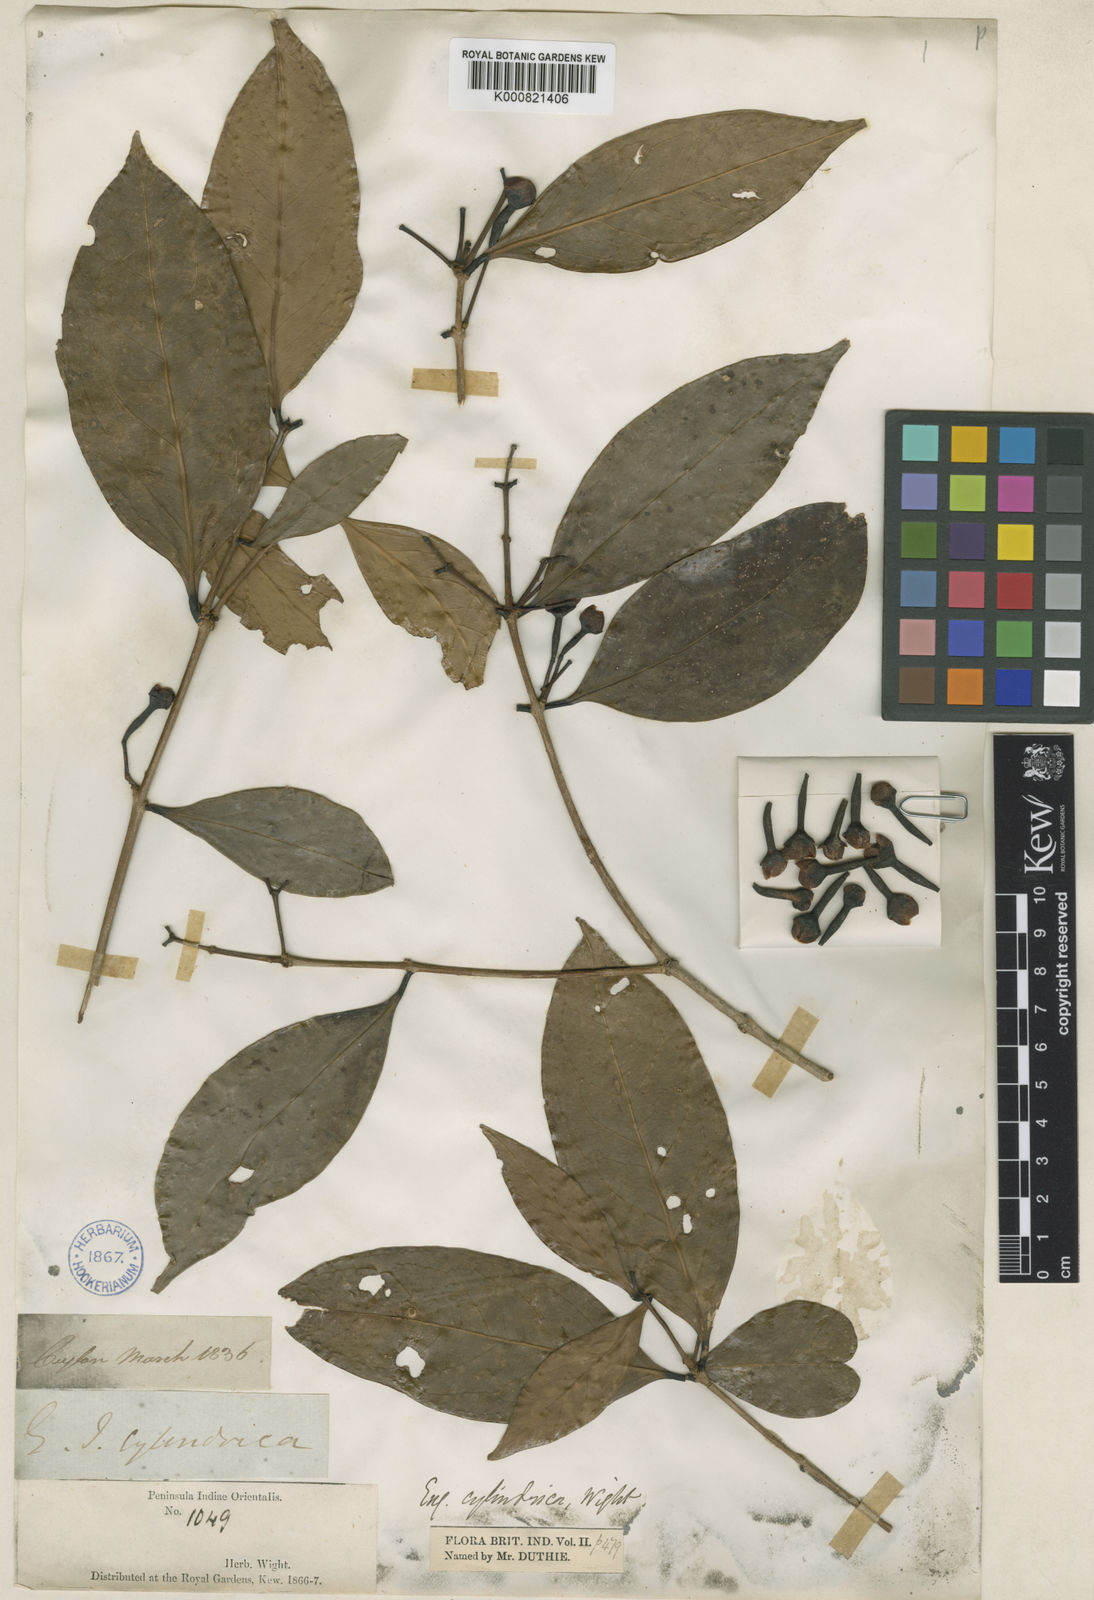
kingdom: Plantae
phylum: Tracheophyta
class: Magnoliopsida
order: Myrtales
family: Myrtaceae
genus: Syzygium
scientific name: Syzygium cylindricum
